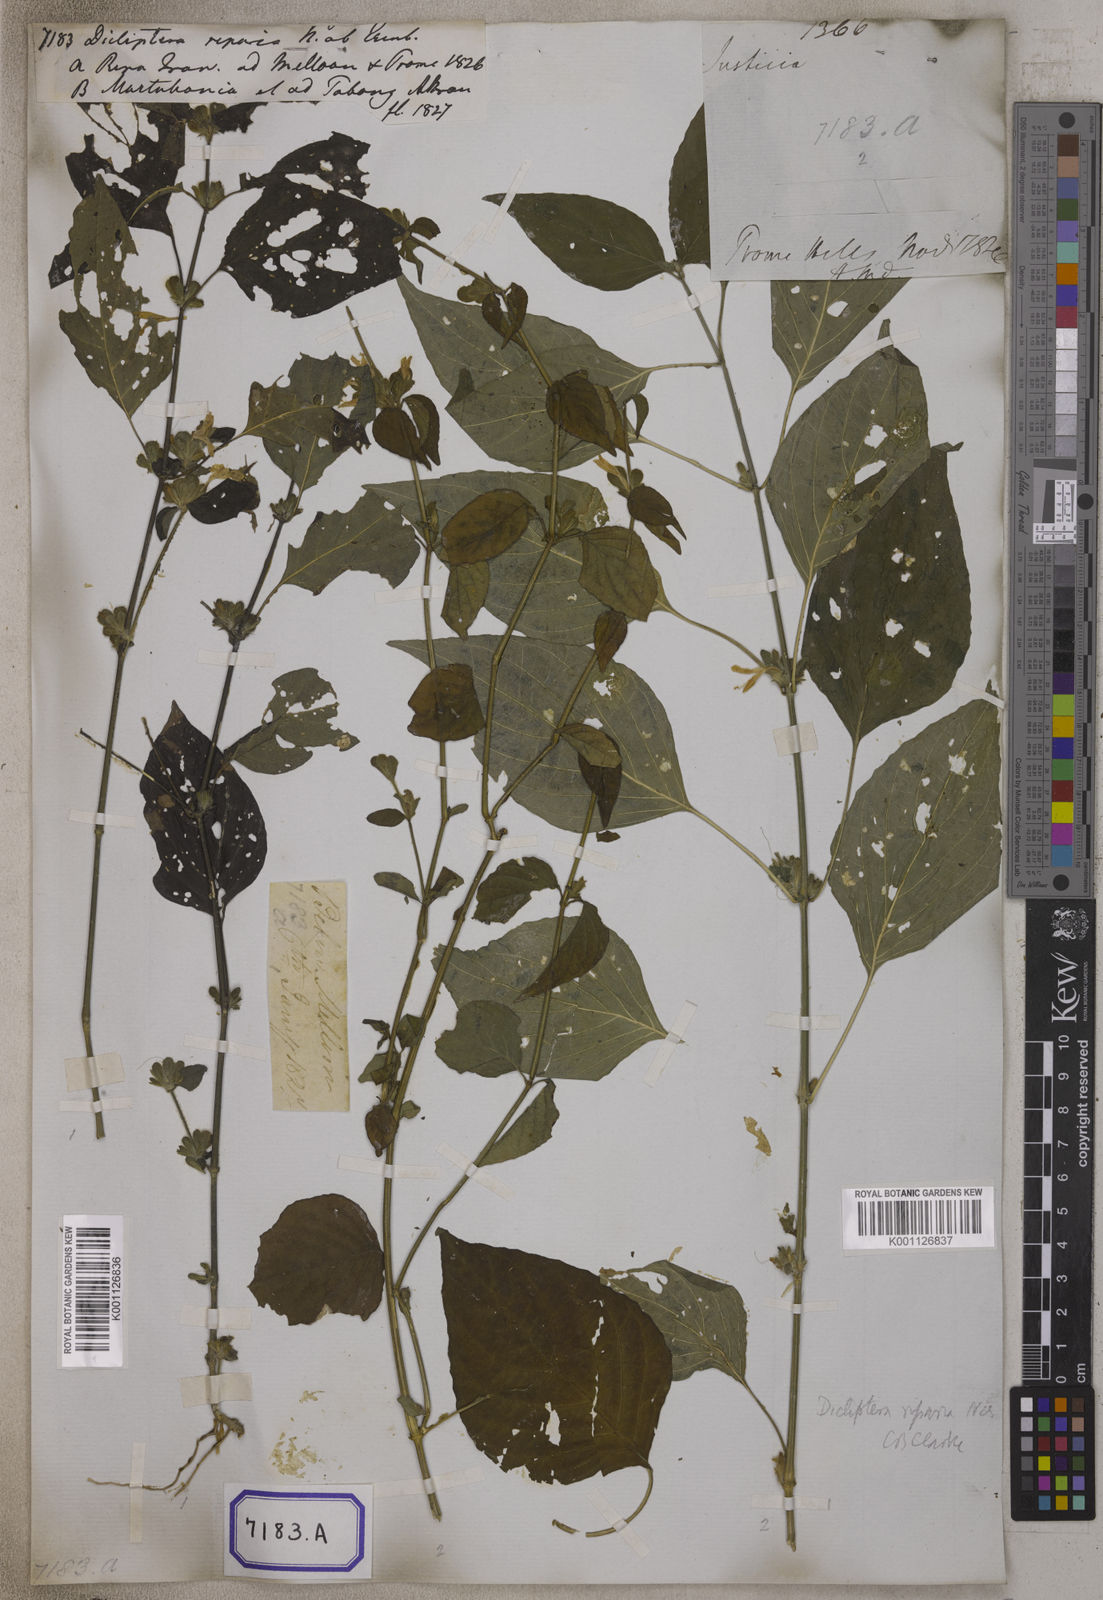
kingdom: Plantae
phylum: Tracheophyta
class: Magnoliopsida
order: Lamiales
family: Acanthaceae
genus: Dicliptera
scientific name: Dicliptera riparia
